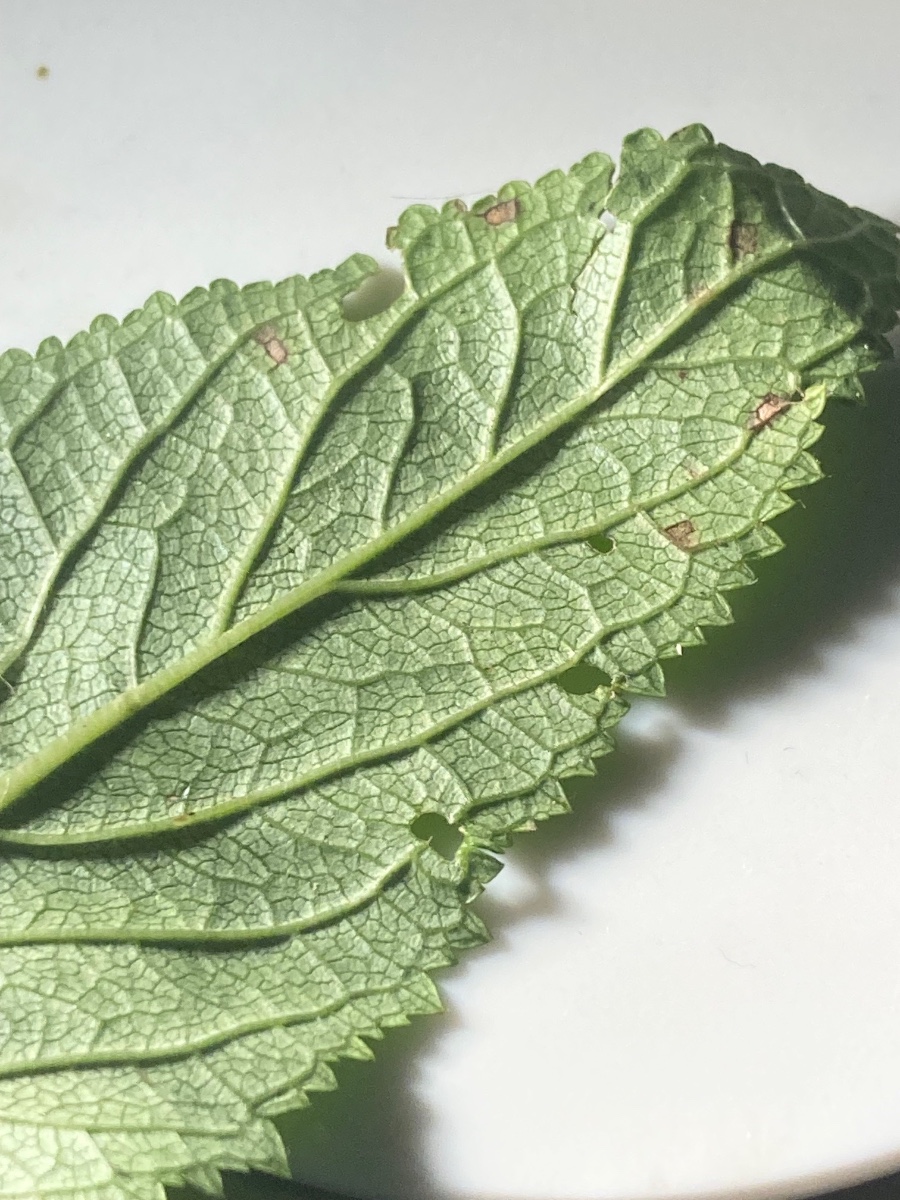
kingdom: Fungi
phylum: Ascomycota
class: Dothideomycetes
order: Mycosphaerellales
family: Mycosphaerellaceae
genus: Ramularia
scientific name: Ramularia carneola
